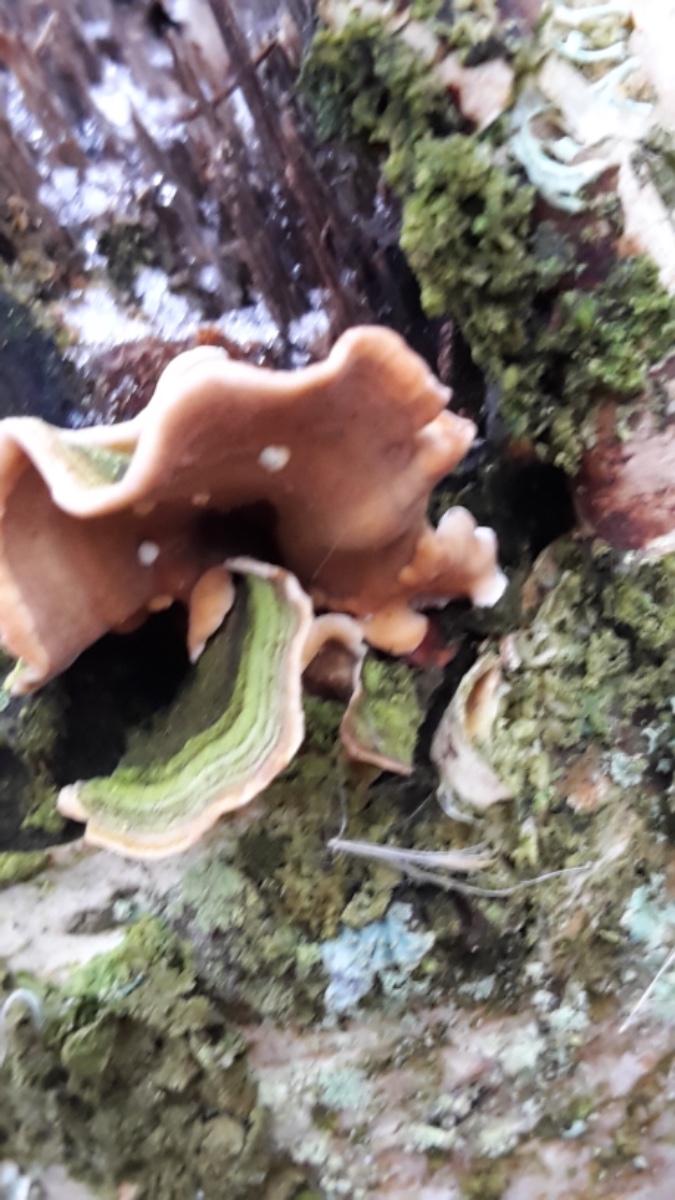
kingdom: Fungi
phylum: Basidiomycota
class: Agaricomycetes
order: Russulales
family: Stereaceae
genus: Stereum
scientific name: Stereum subtomentosum
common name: smuk lædersvamp
